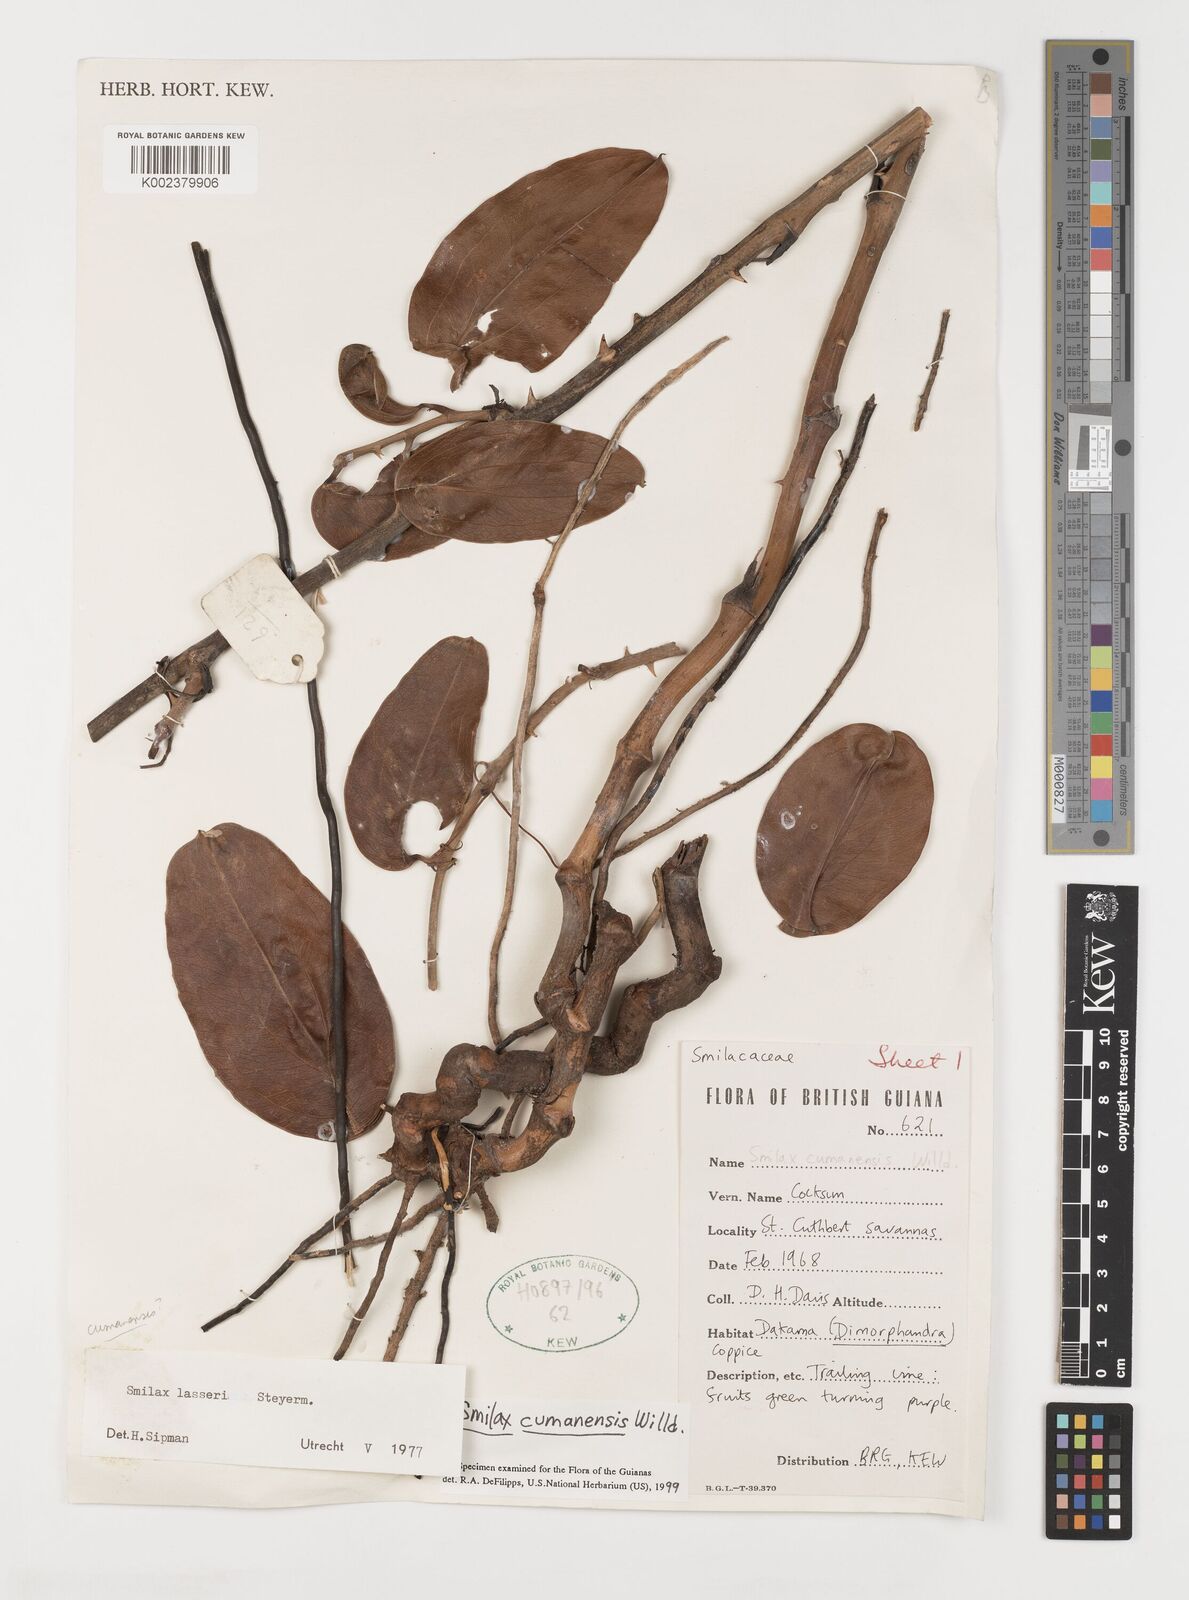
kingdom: Plantae
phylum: Tracheophyta
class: Liliopsida
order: Liliales
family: Smilacaceae
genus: Smilax
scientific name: Smilax oblongata
